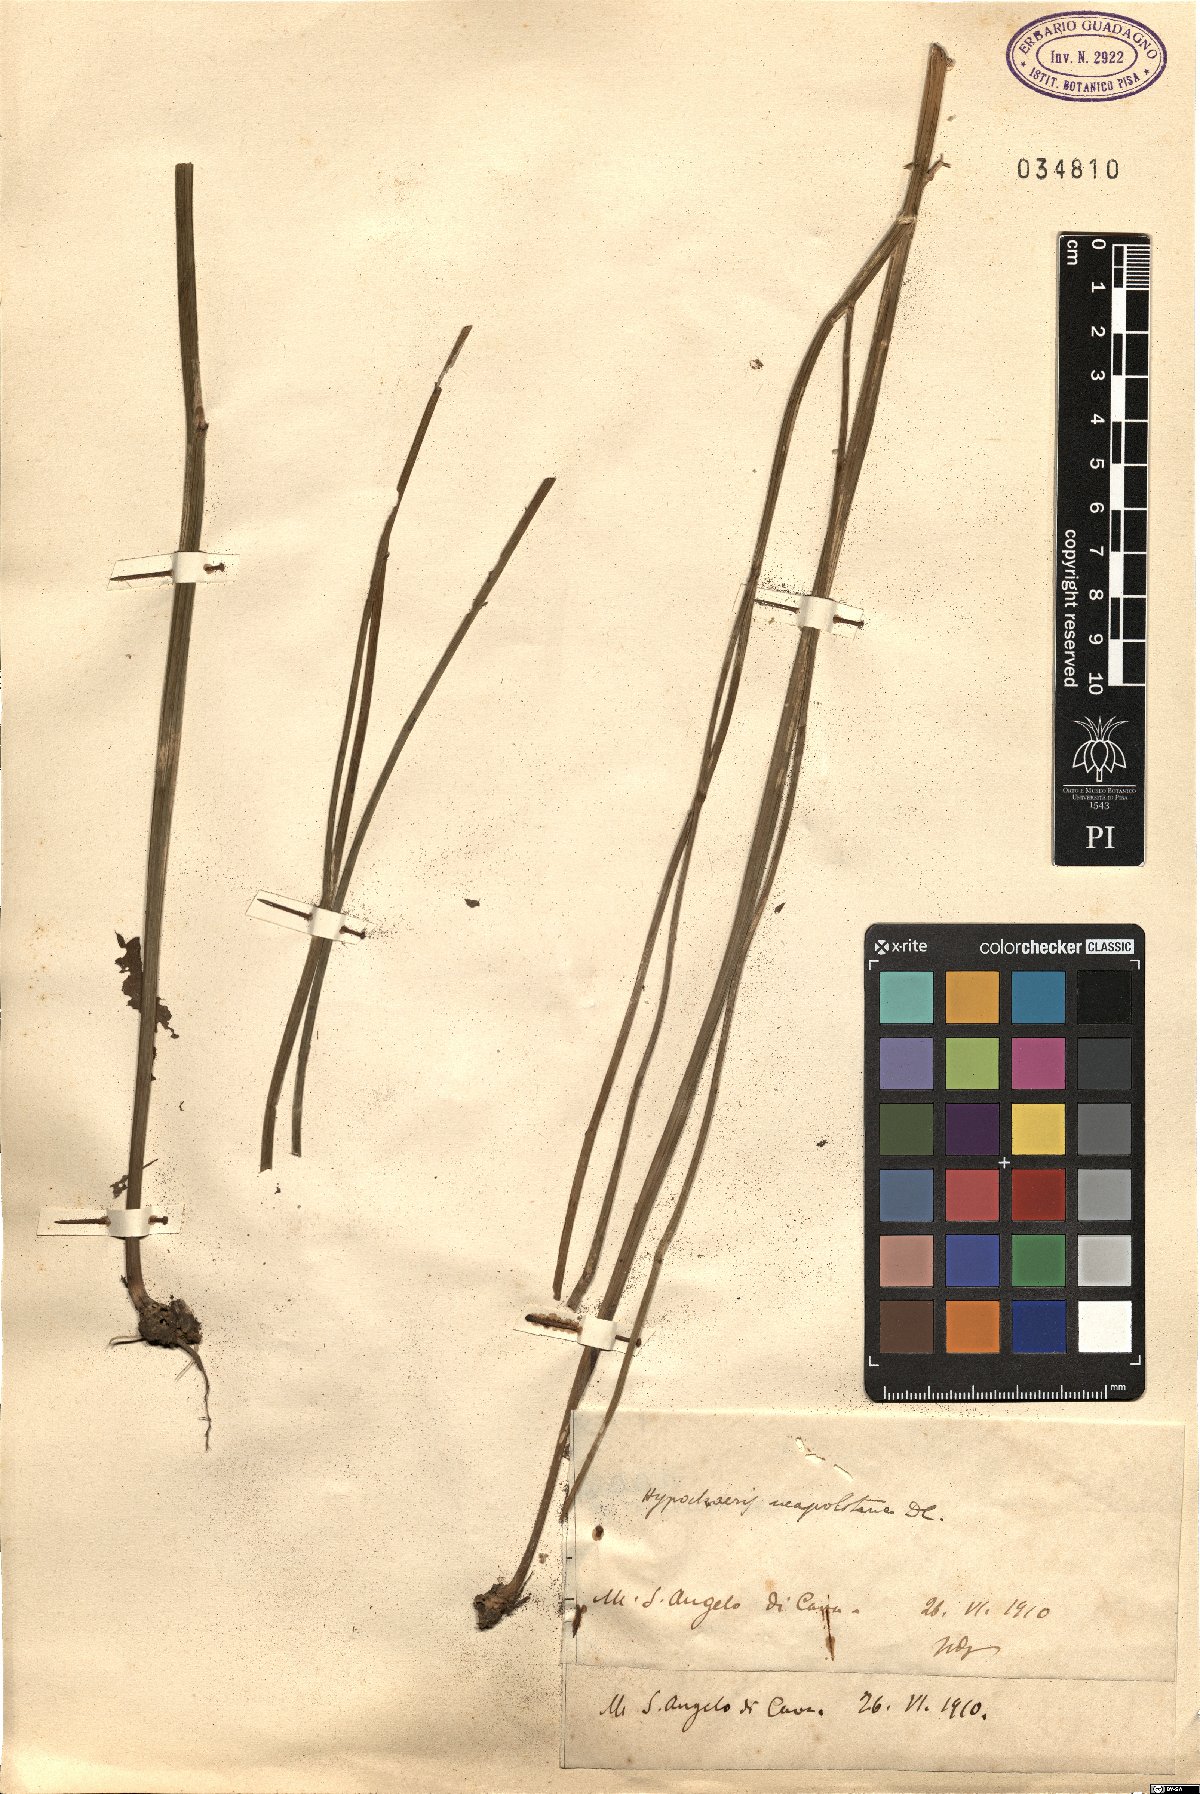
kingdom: Plantae
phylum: Tracheophyta
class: Magnoliopsida
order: Asterales
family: Asteraceae
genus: Hypochaeris
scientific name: Hypochaeris radicata
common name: Flatweed
